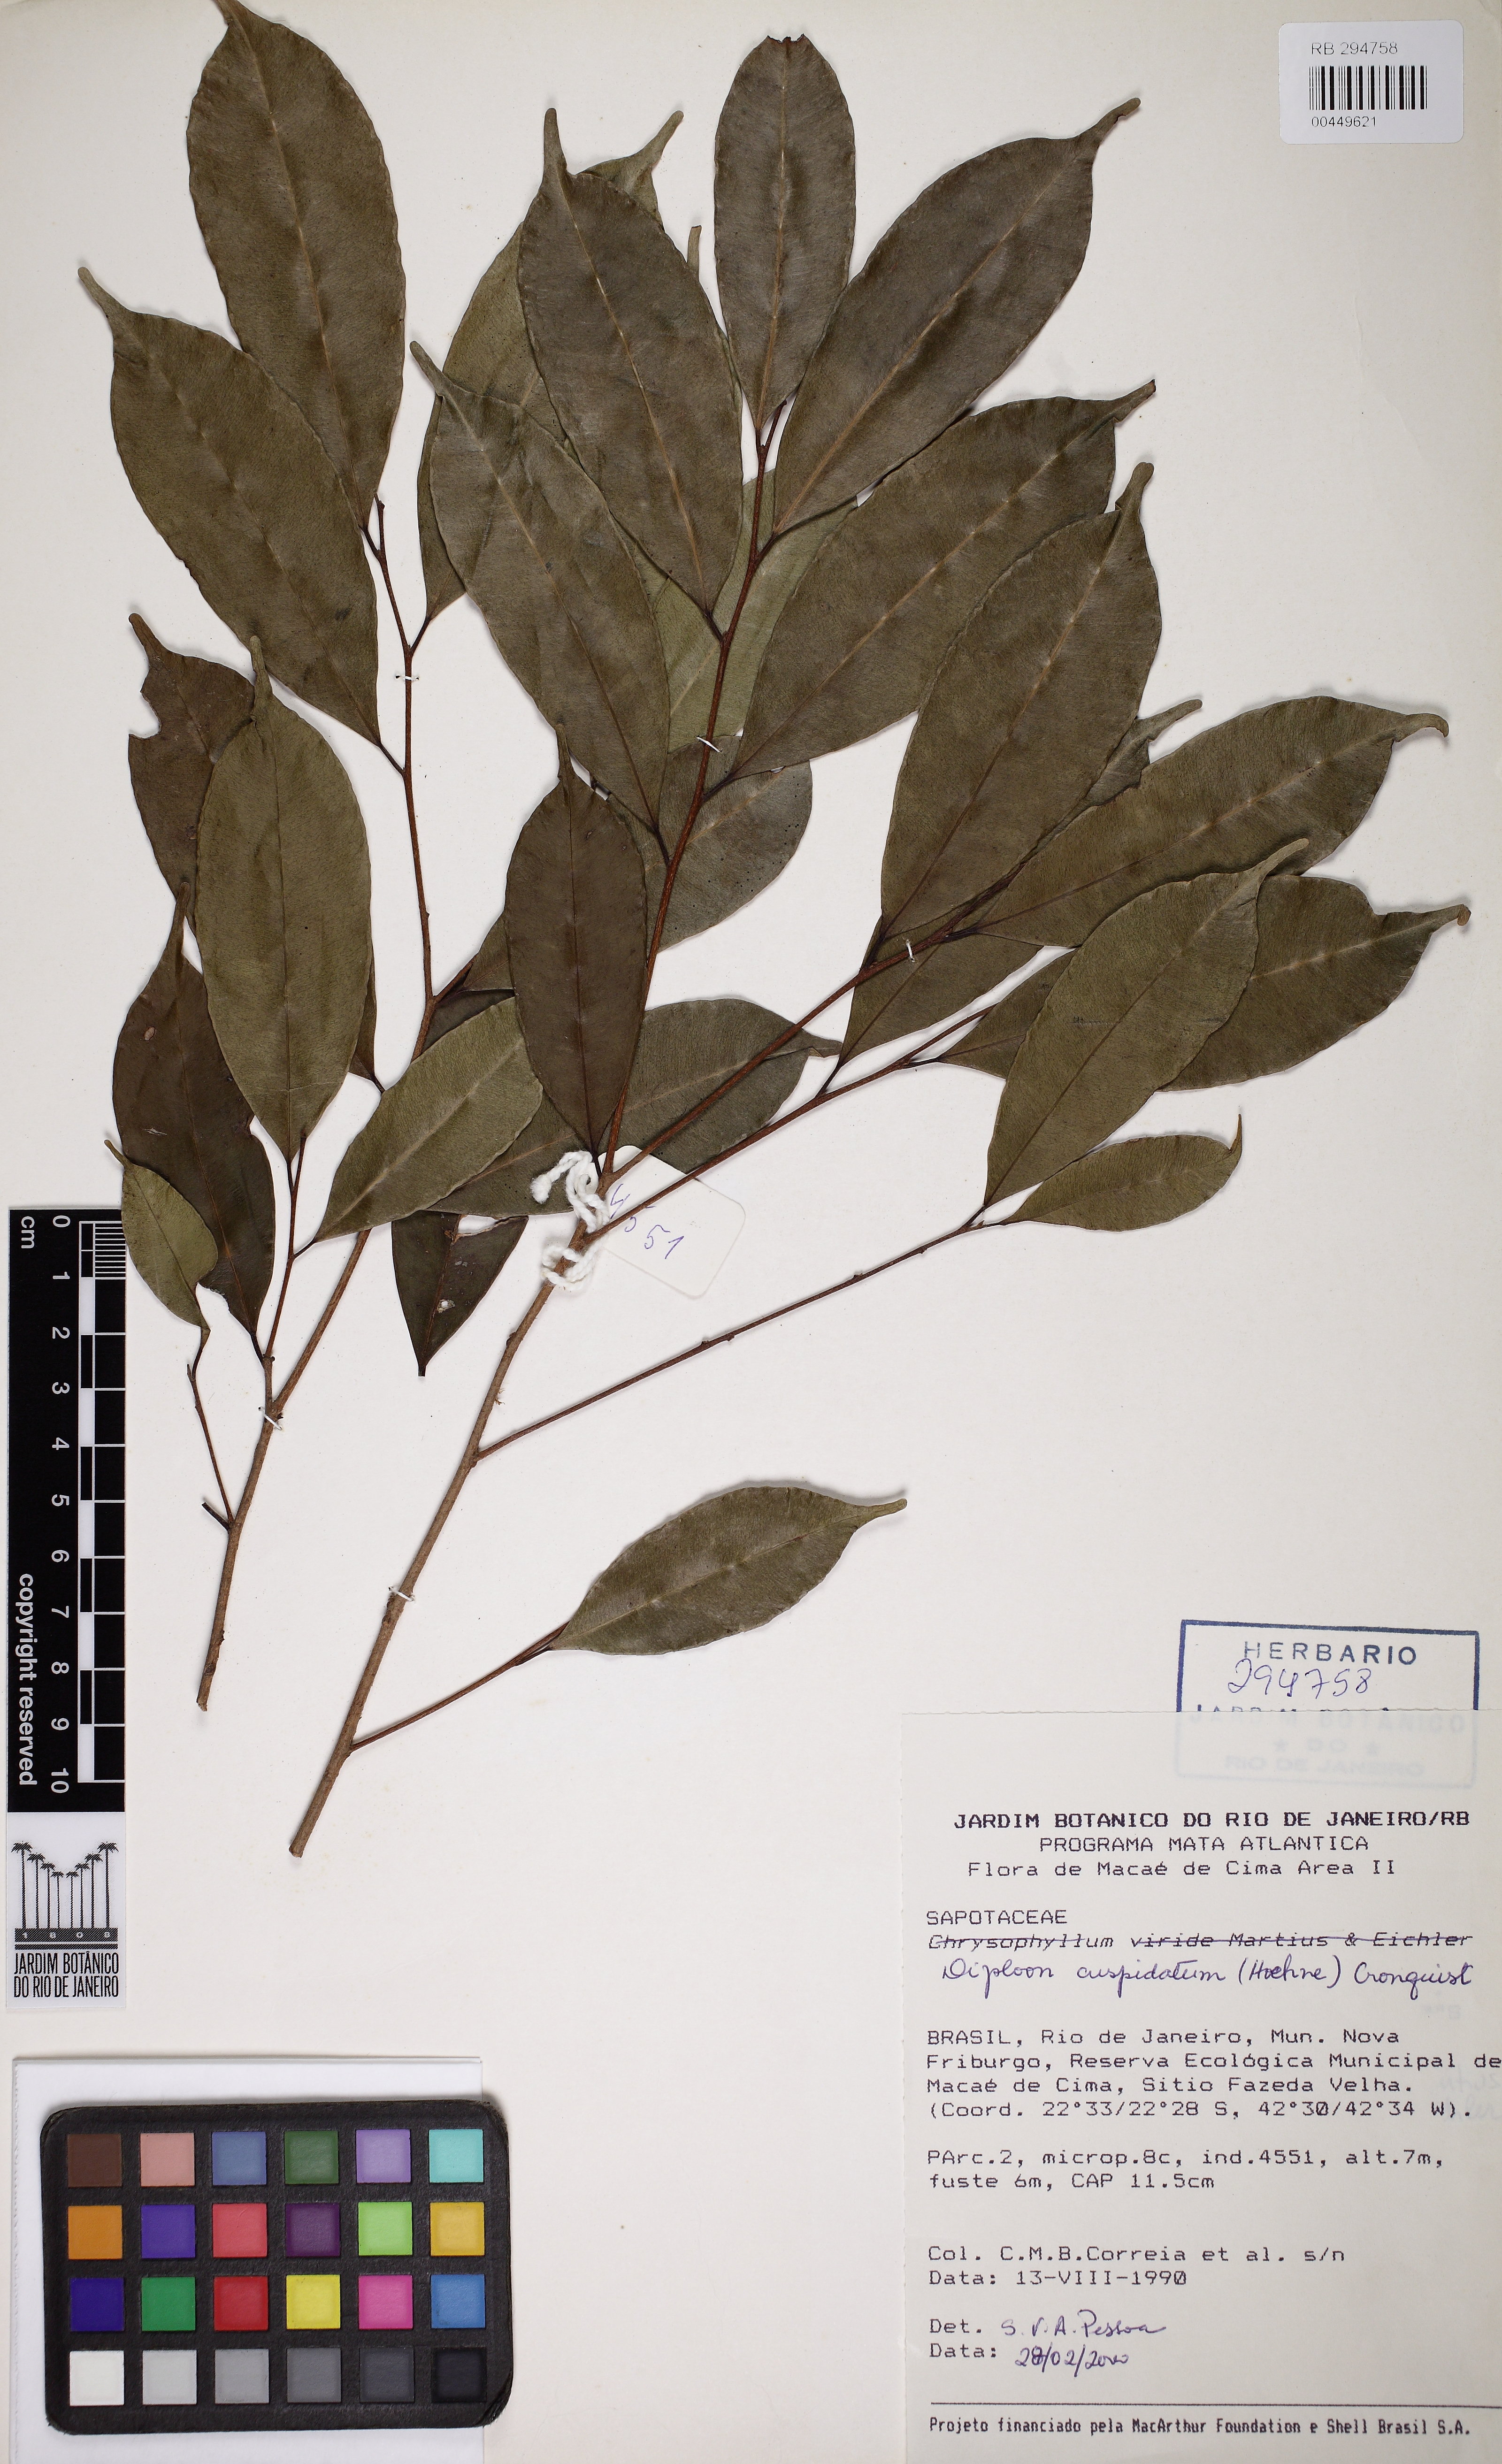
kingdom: Plantae
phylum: Tracheophyta
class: Magnoliopsida
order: Ericales
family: Sapotaceae
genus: Diploon
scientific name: Diploon cuspidatum
